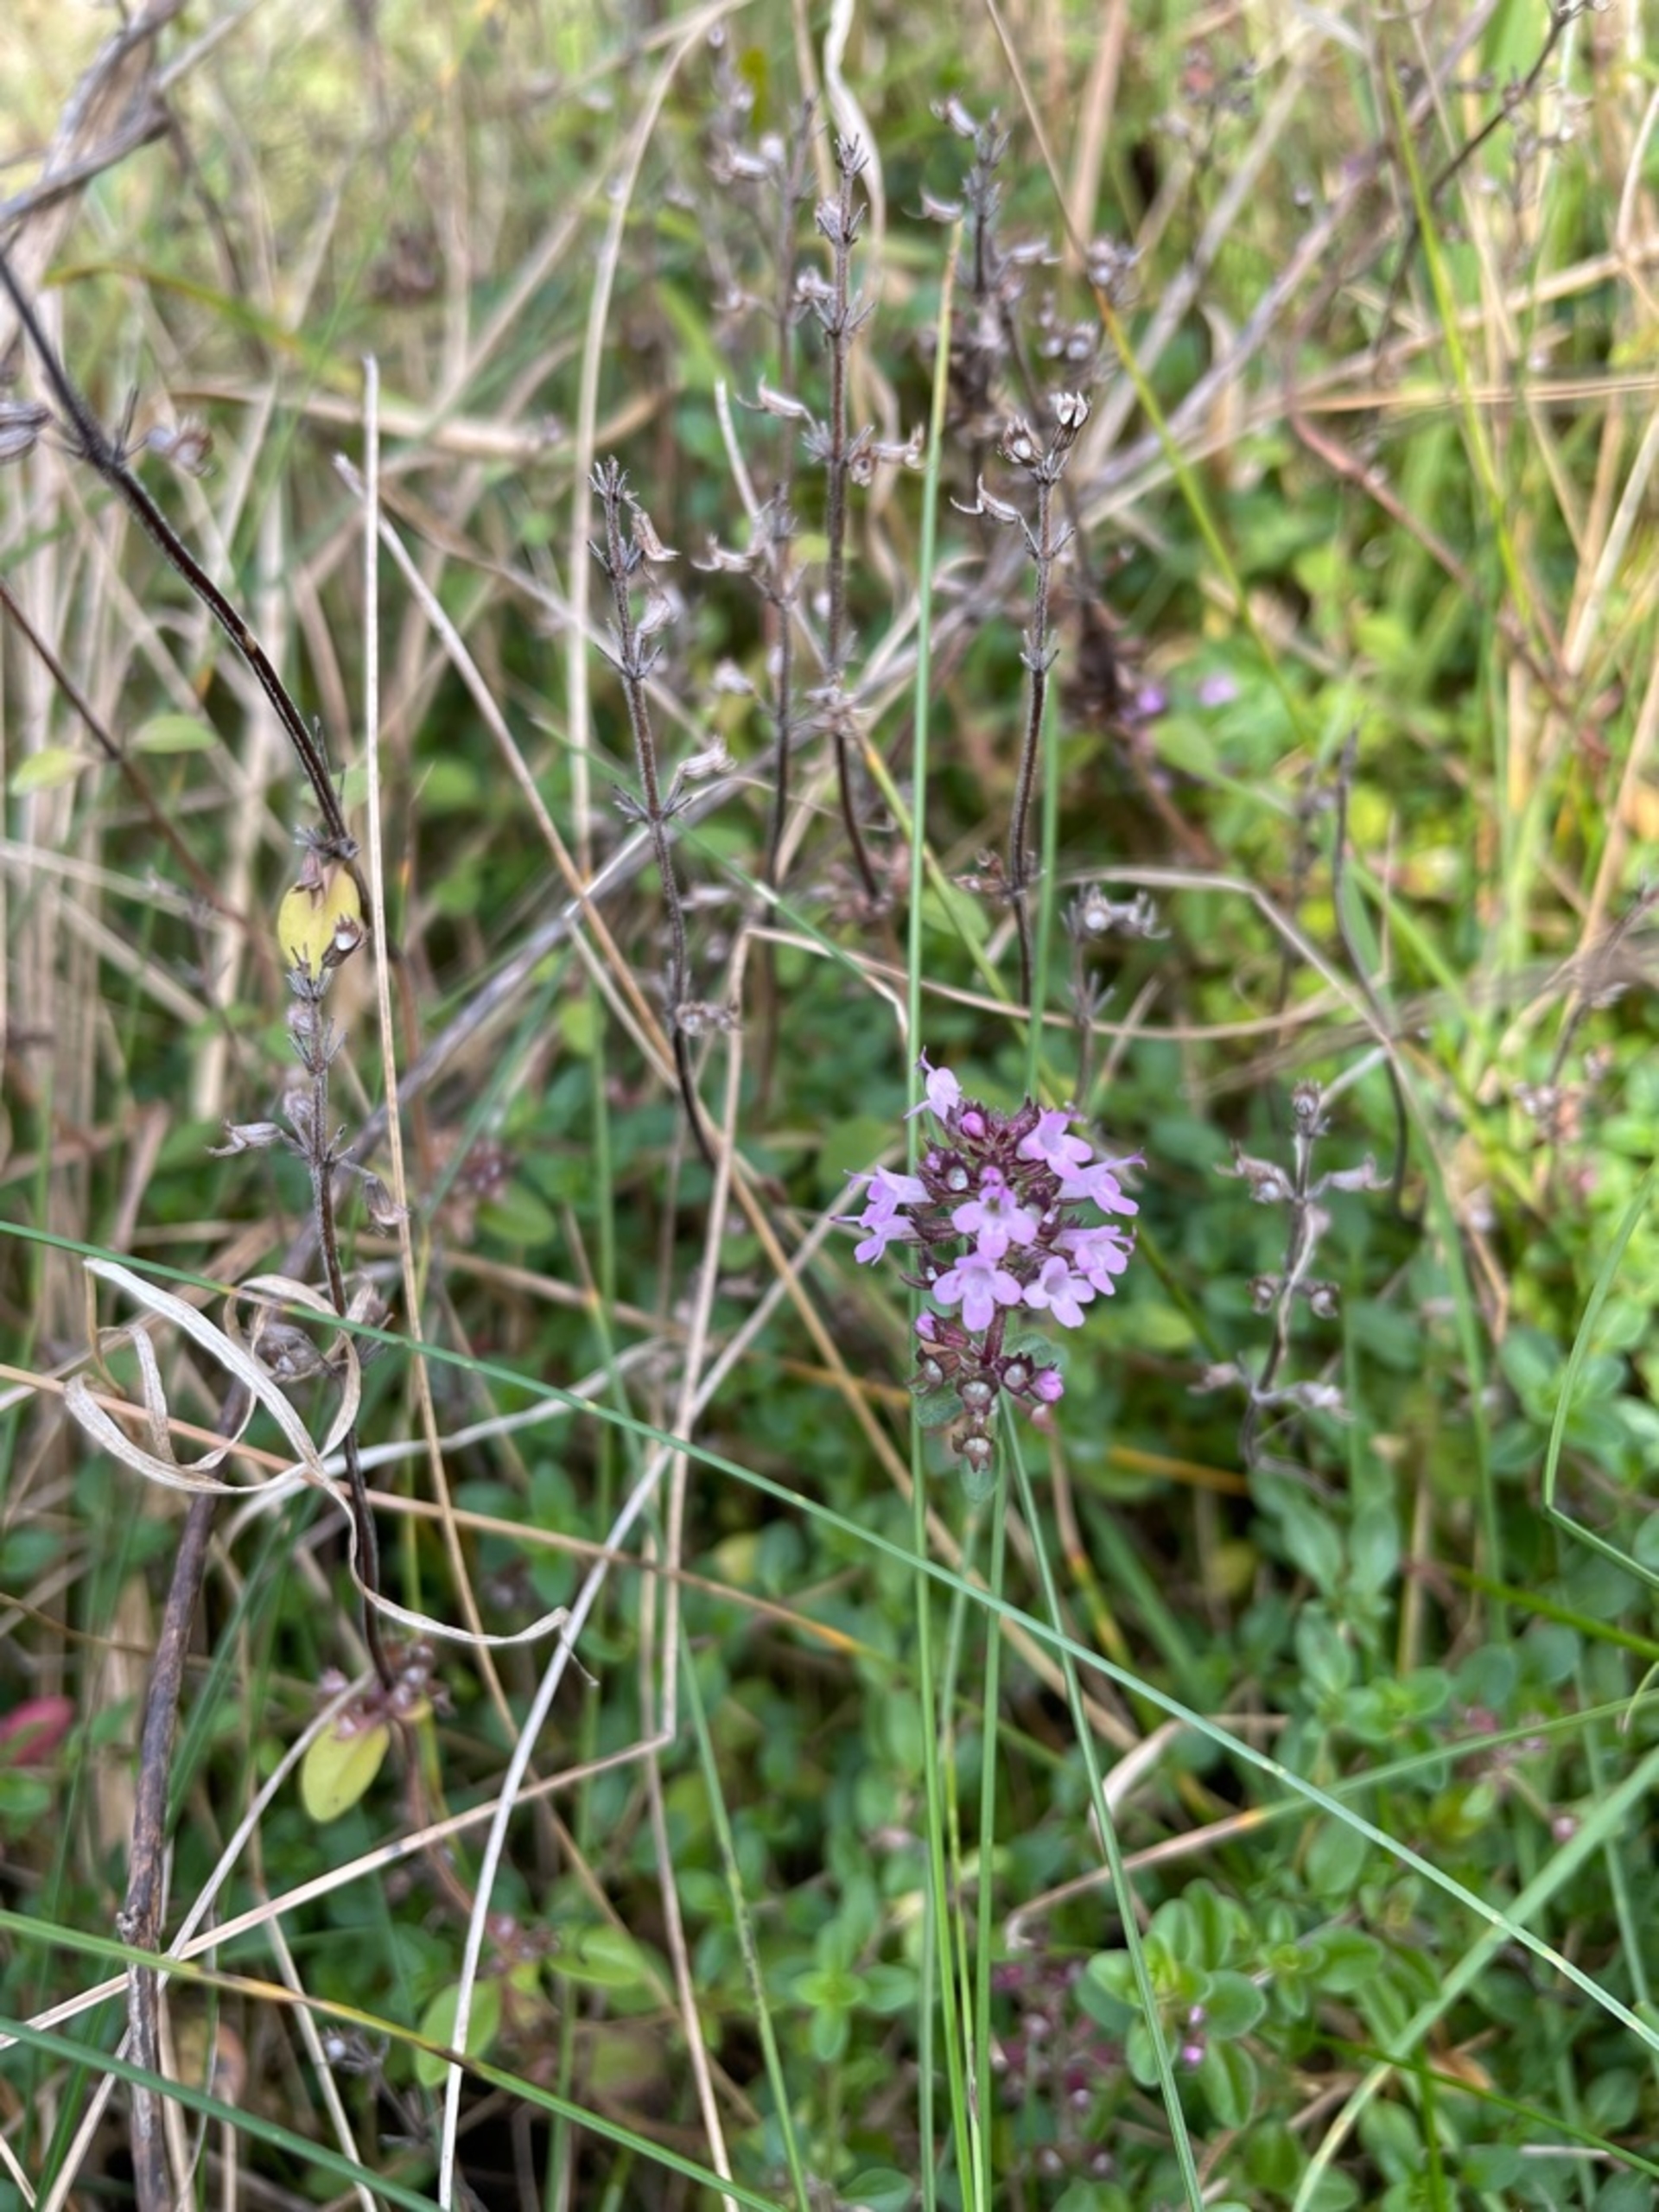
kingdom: Plantae
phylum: Tracheophyta
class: Magnoliopsida
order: Lamiales
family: Lamiaceae
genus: Thymus
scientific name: Thymus pulegioides
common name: Bredbladet timian
